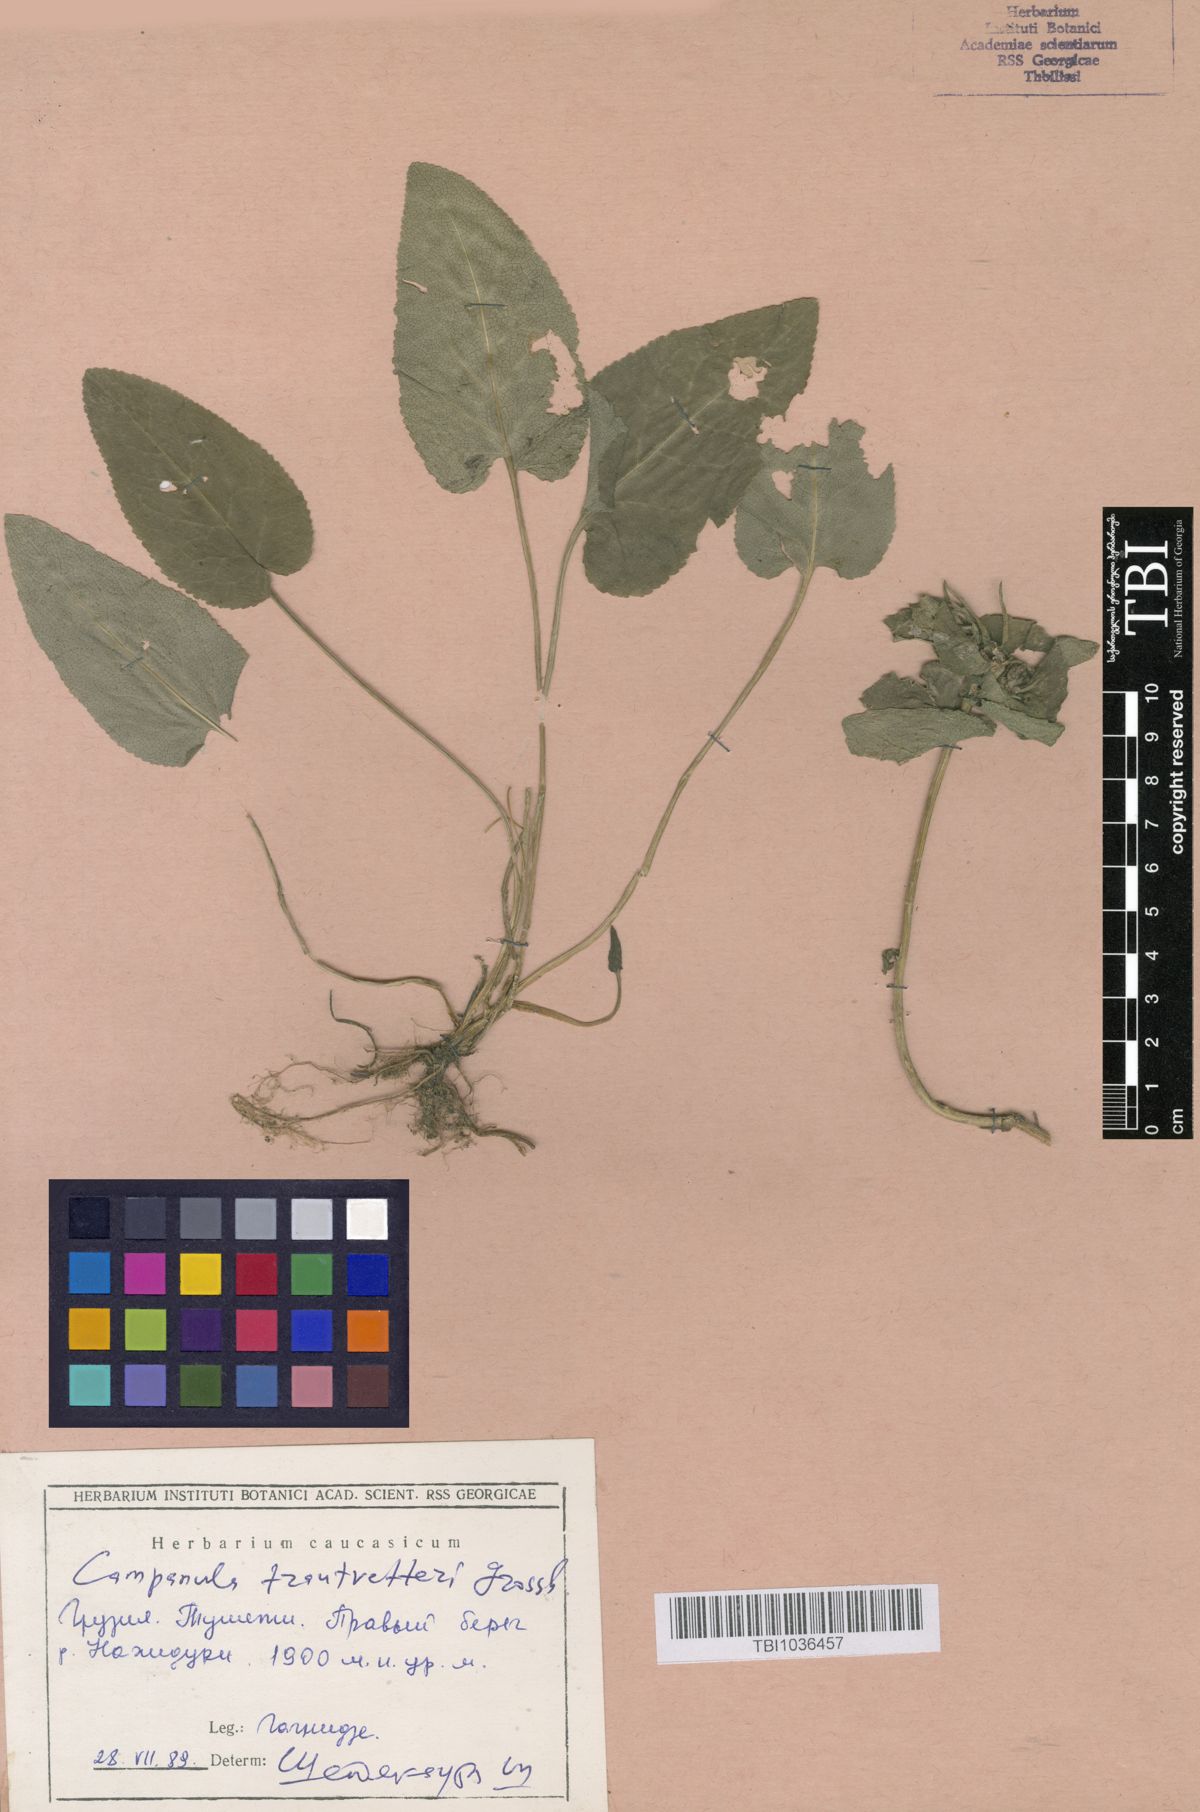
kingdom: Plantae
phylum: Tracheophyta
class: Magnoliopsida
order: Asterales
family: Campanulaceae
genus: Campanula
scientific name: Campanula glomerata
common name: Clustered bellflower
